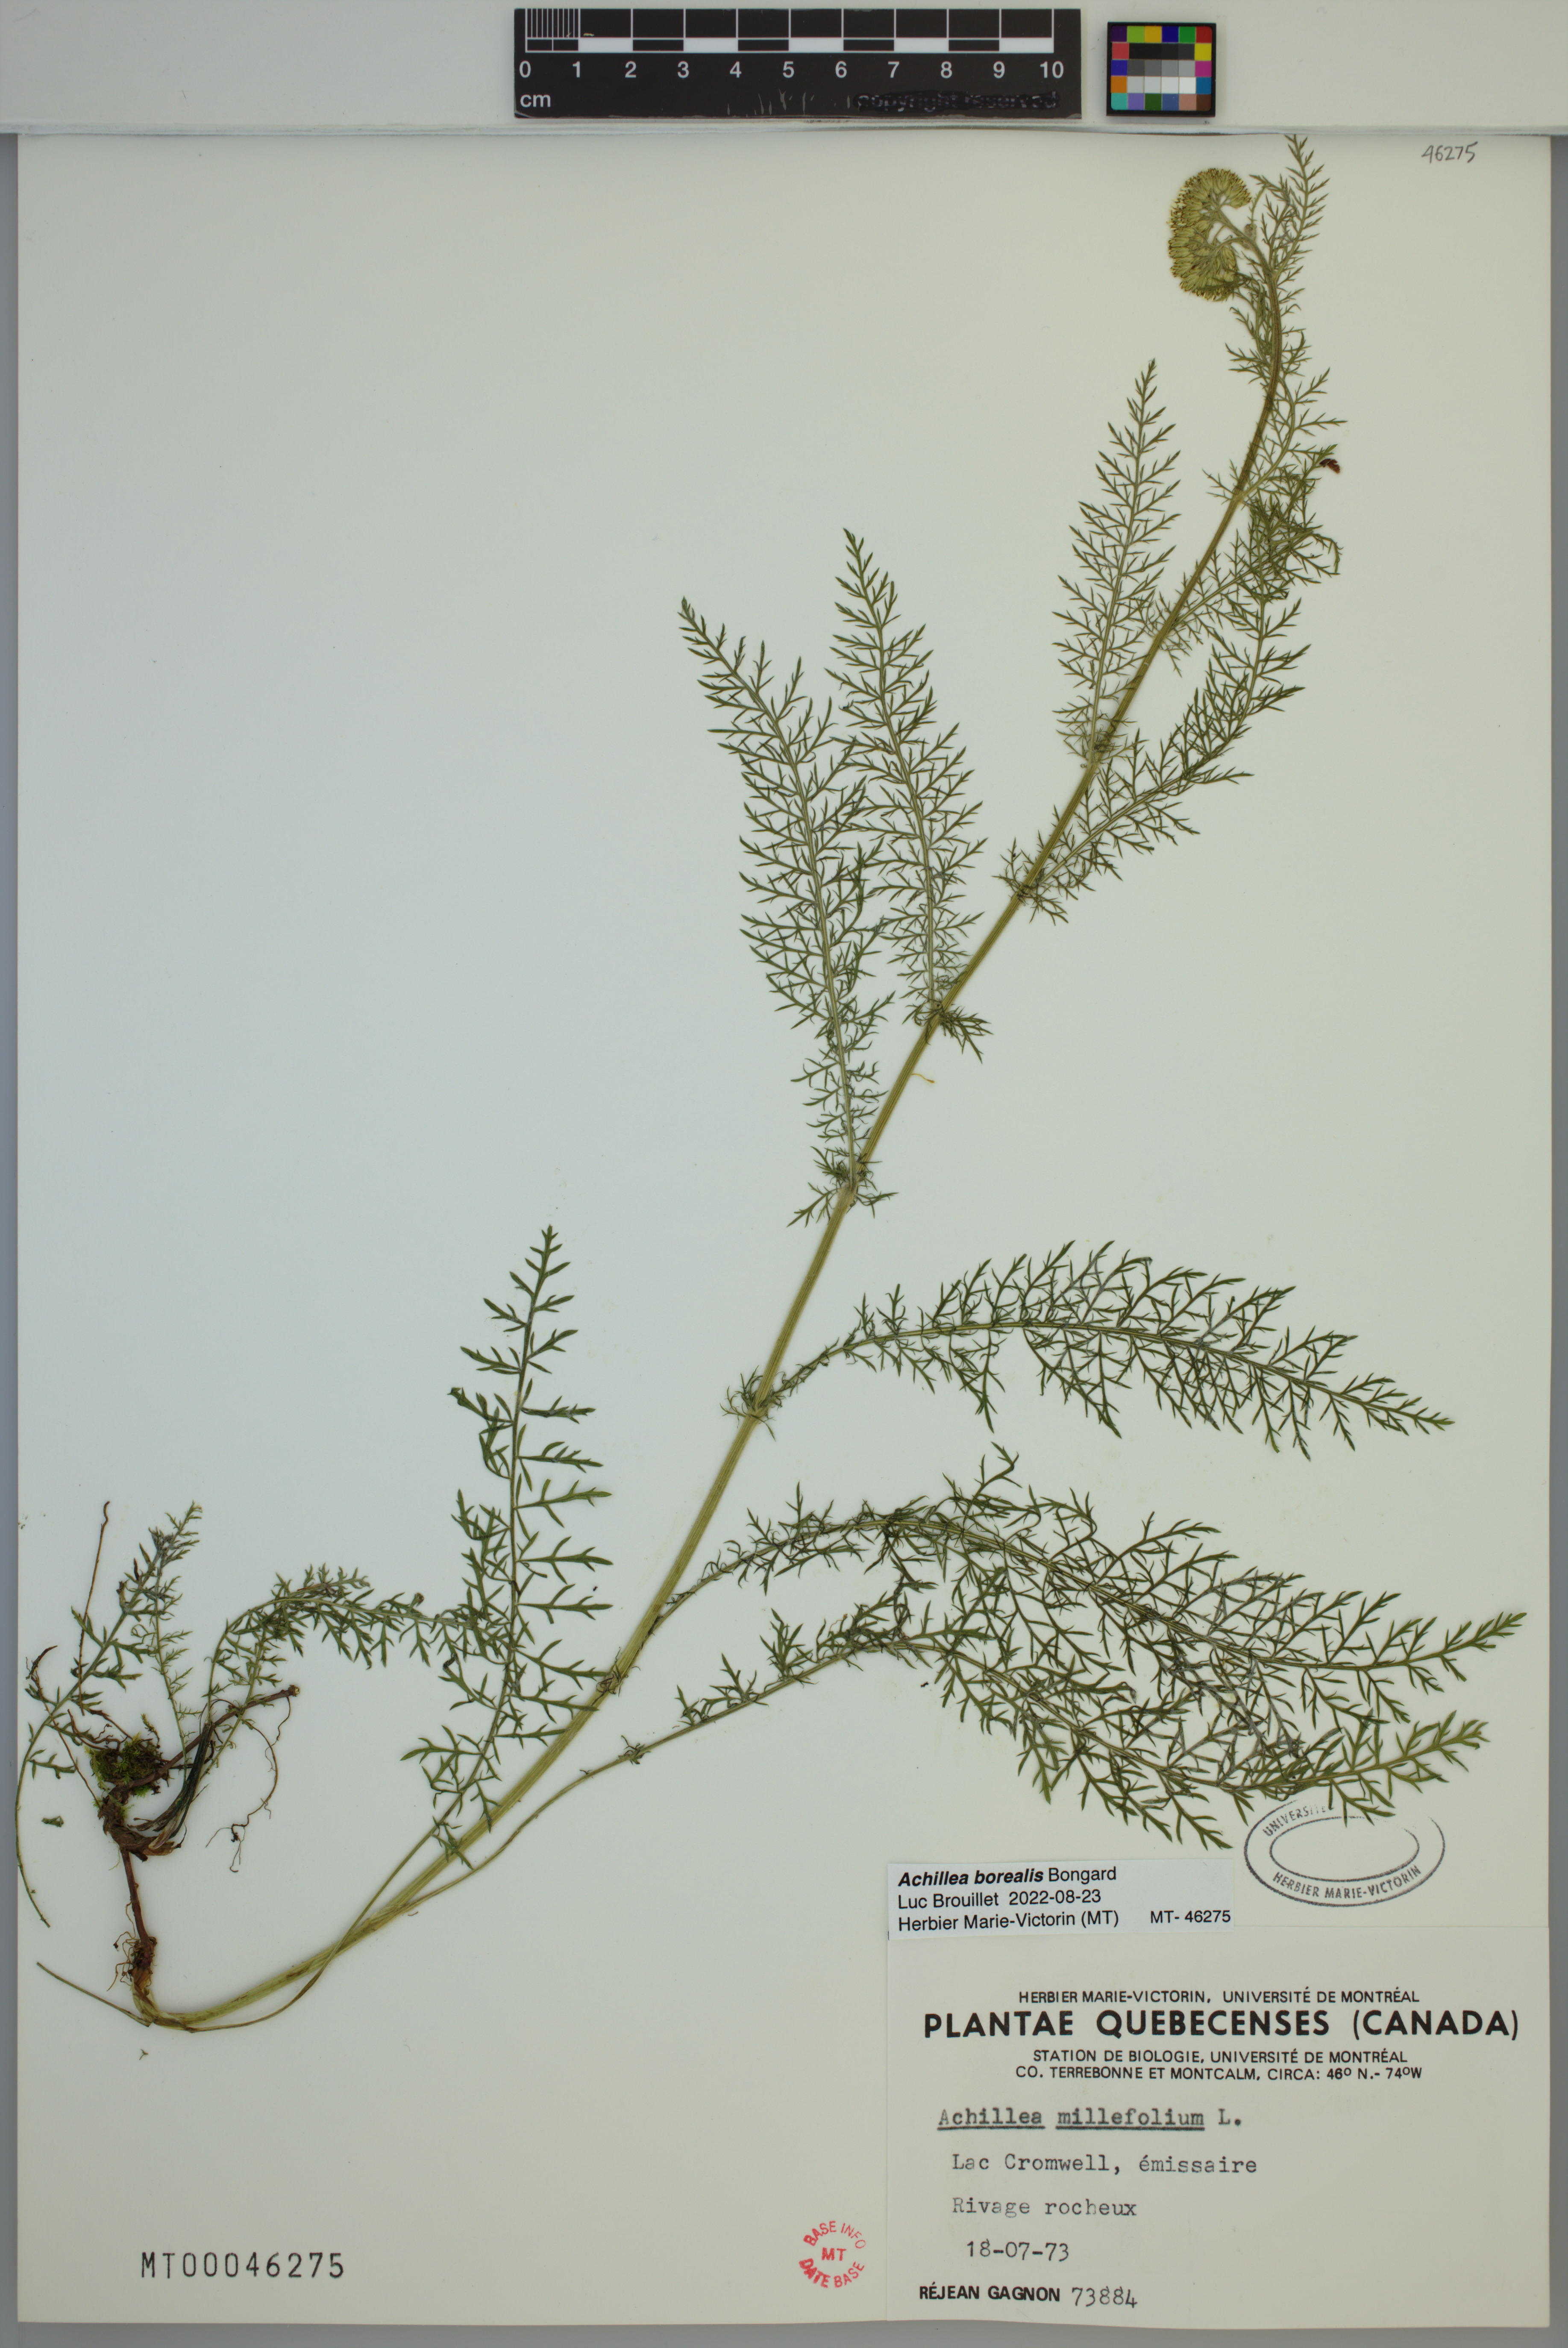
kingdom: Plantae
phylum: Tracheophyta
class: Magnoliopsida
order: Asterales
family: Asteraceae
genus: Achillea
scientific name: Achillea millefolium
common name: Yarrow
